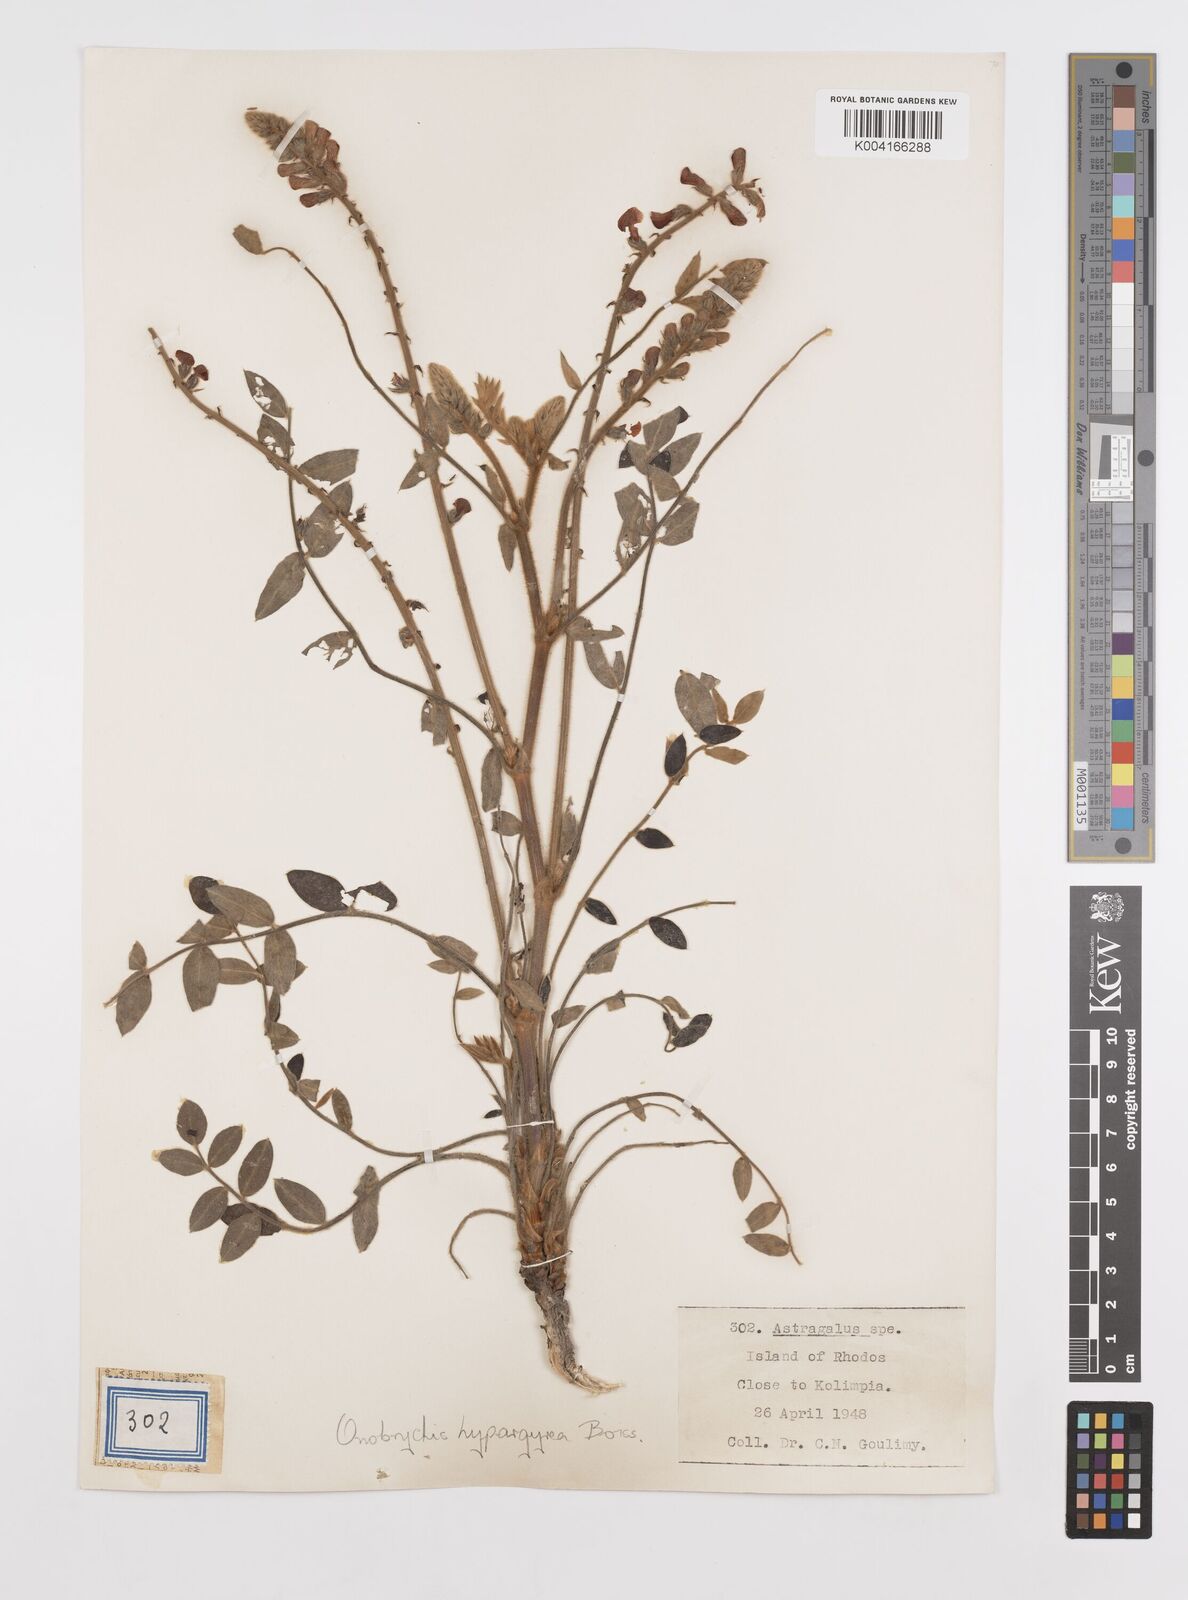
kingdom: Plantae
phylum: Tracheophyta
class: Magnoliopsida
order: Fabales
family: Fabaceae
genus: Onobrychis
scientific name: Onobrychis hypargyrea
